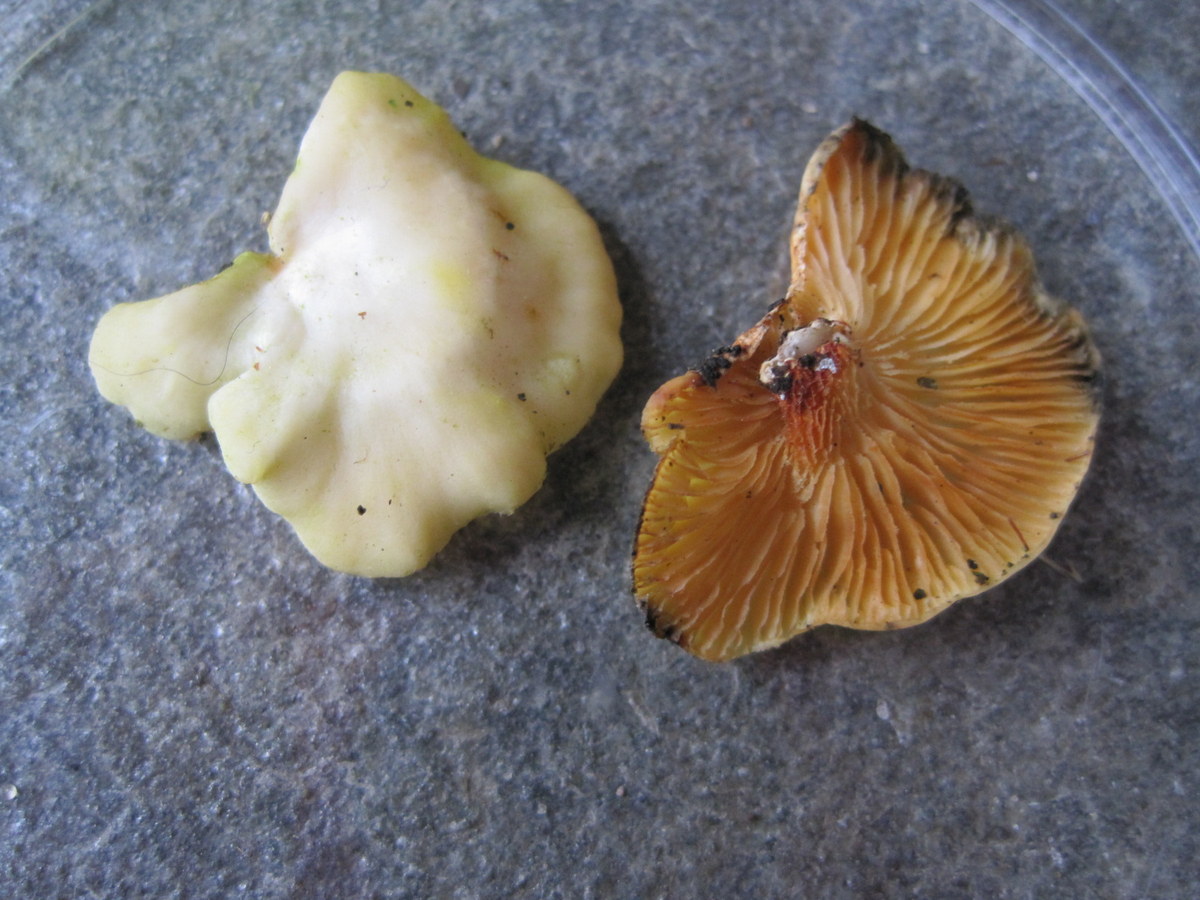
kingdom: Fungi
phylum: Basidiomycota
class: Agaricomycetes
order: Polyporales
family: Polyporaceae
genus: Neofavolus
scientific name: Neofavolus suavissimus
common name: anishat
